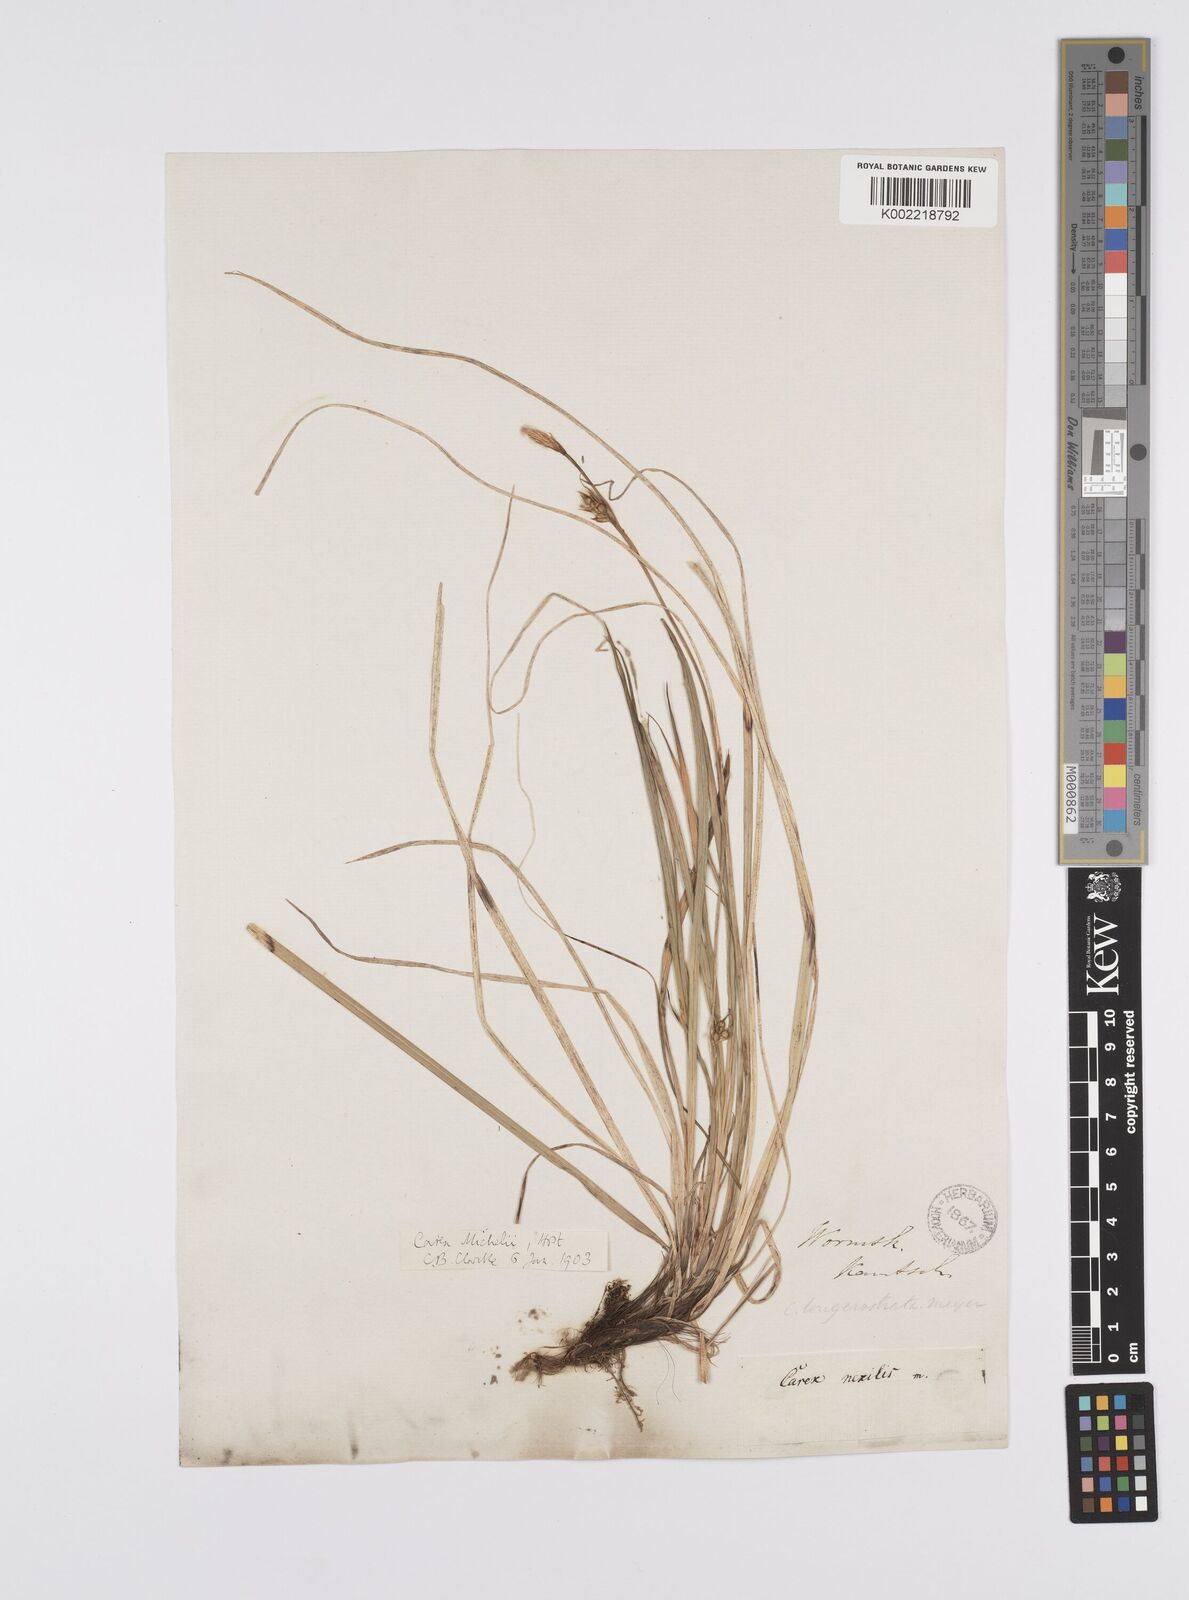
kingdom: Plantae
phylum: Tracheophyta
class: Liliopsida
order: Poales
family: Cyperaceae
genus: Carex
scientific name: Carex longerostrata
